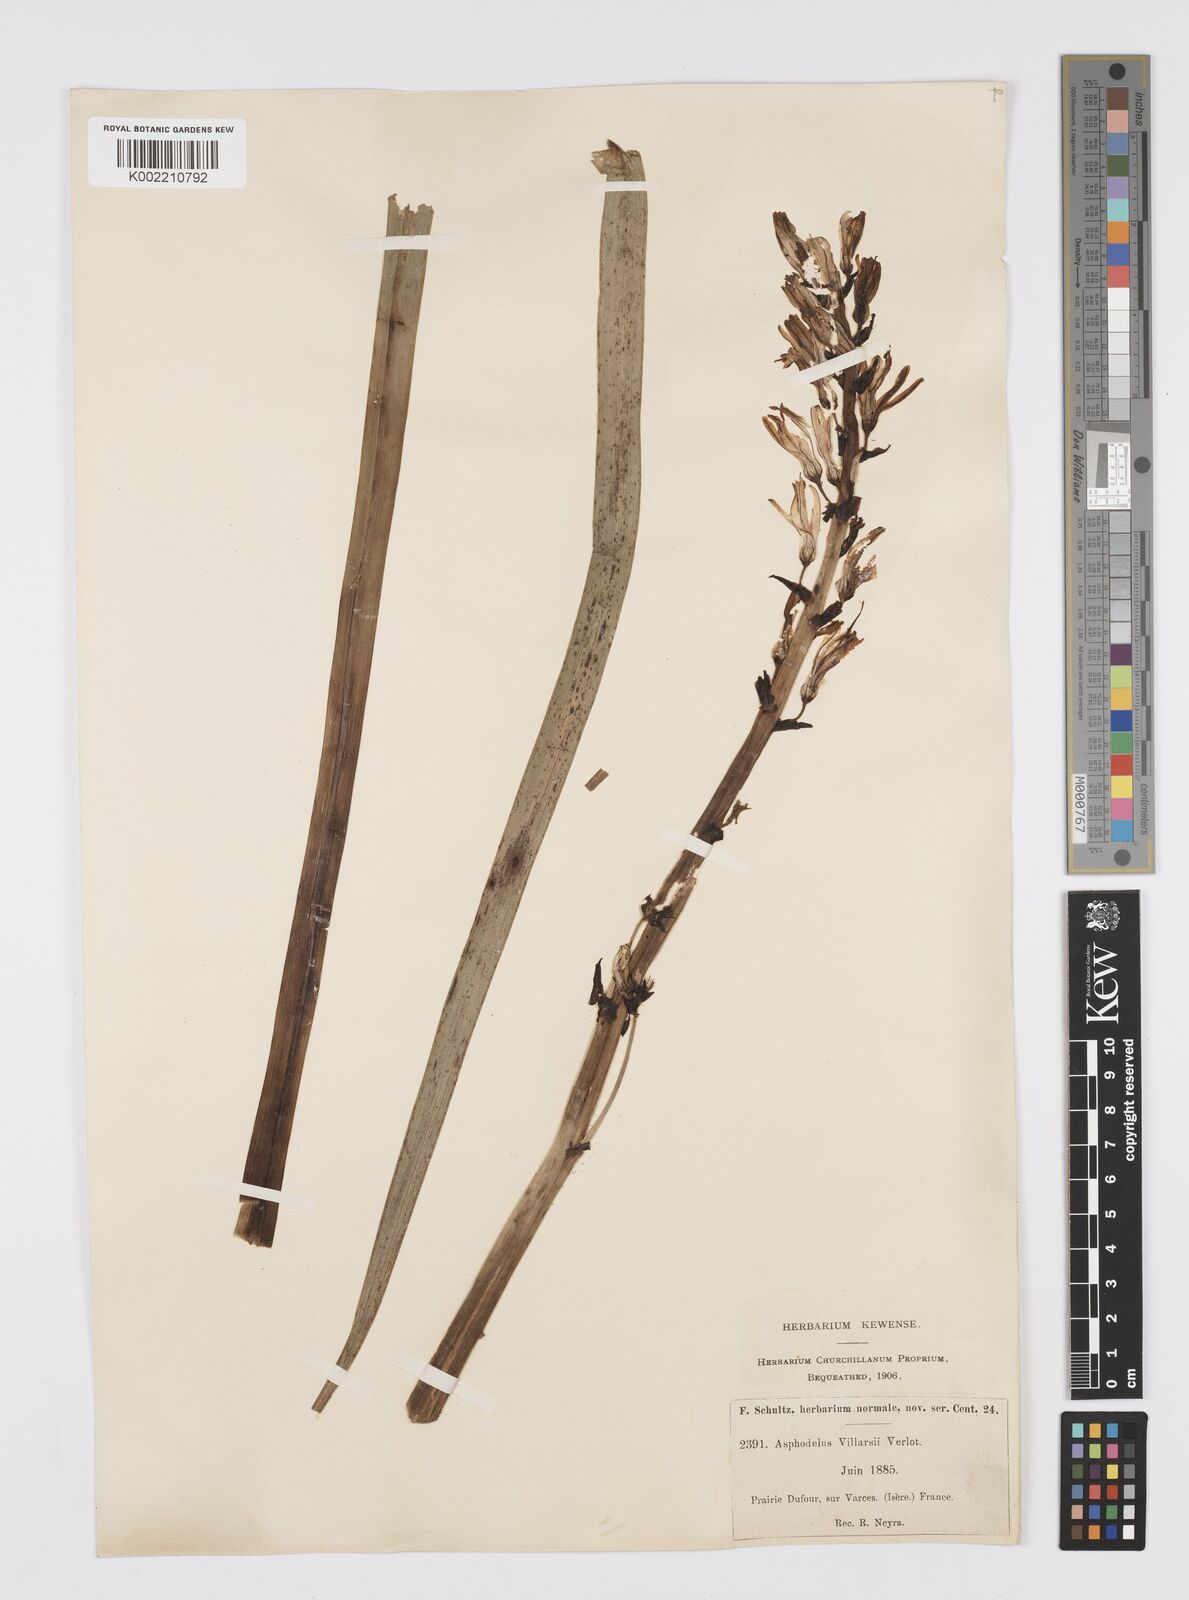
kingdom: Plantae
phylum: Tracheophyta
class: Liliopsida
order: Asparagales
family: Asphodelaceae
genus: Asphodelus
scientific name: Asphodelus cerasifer
